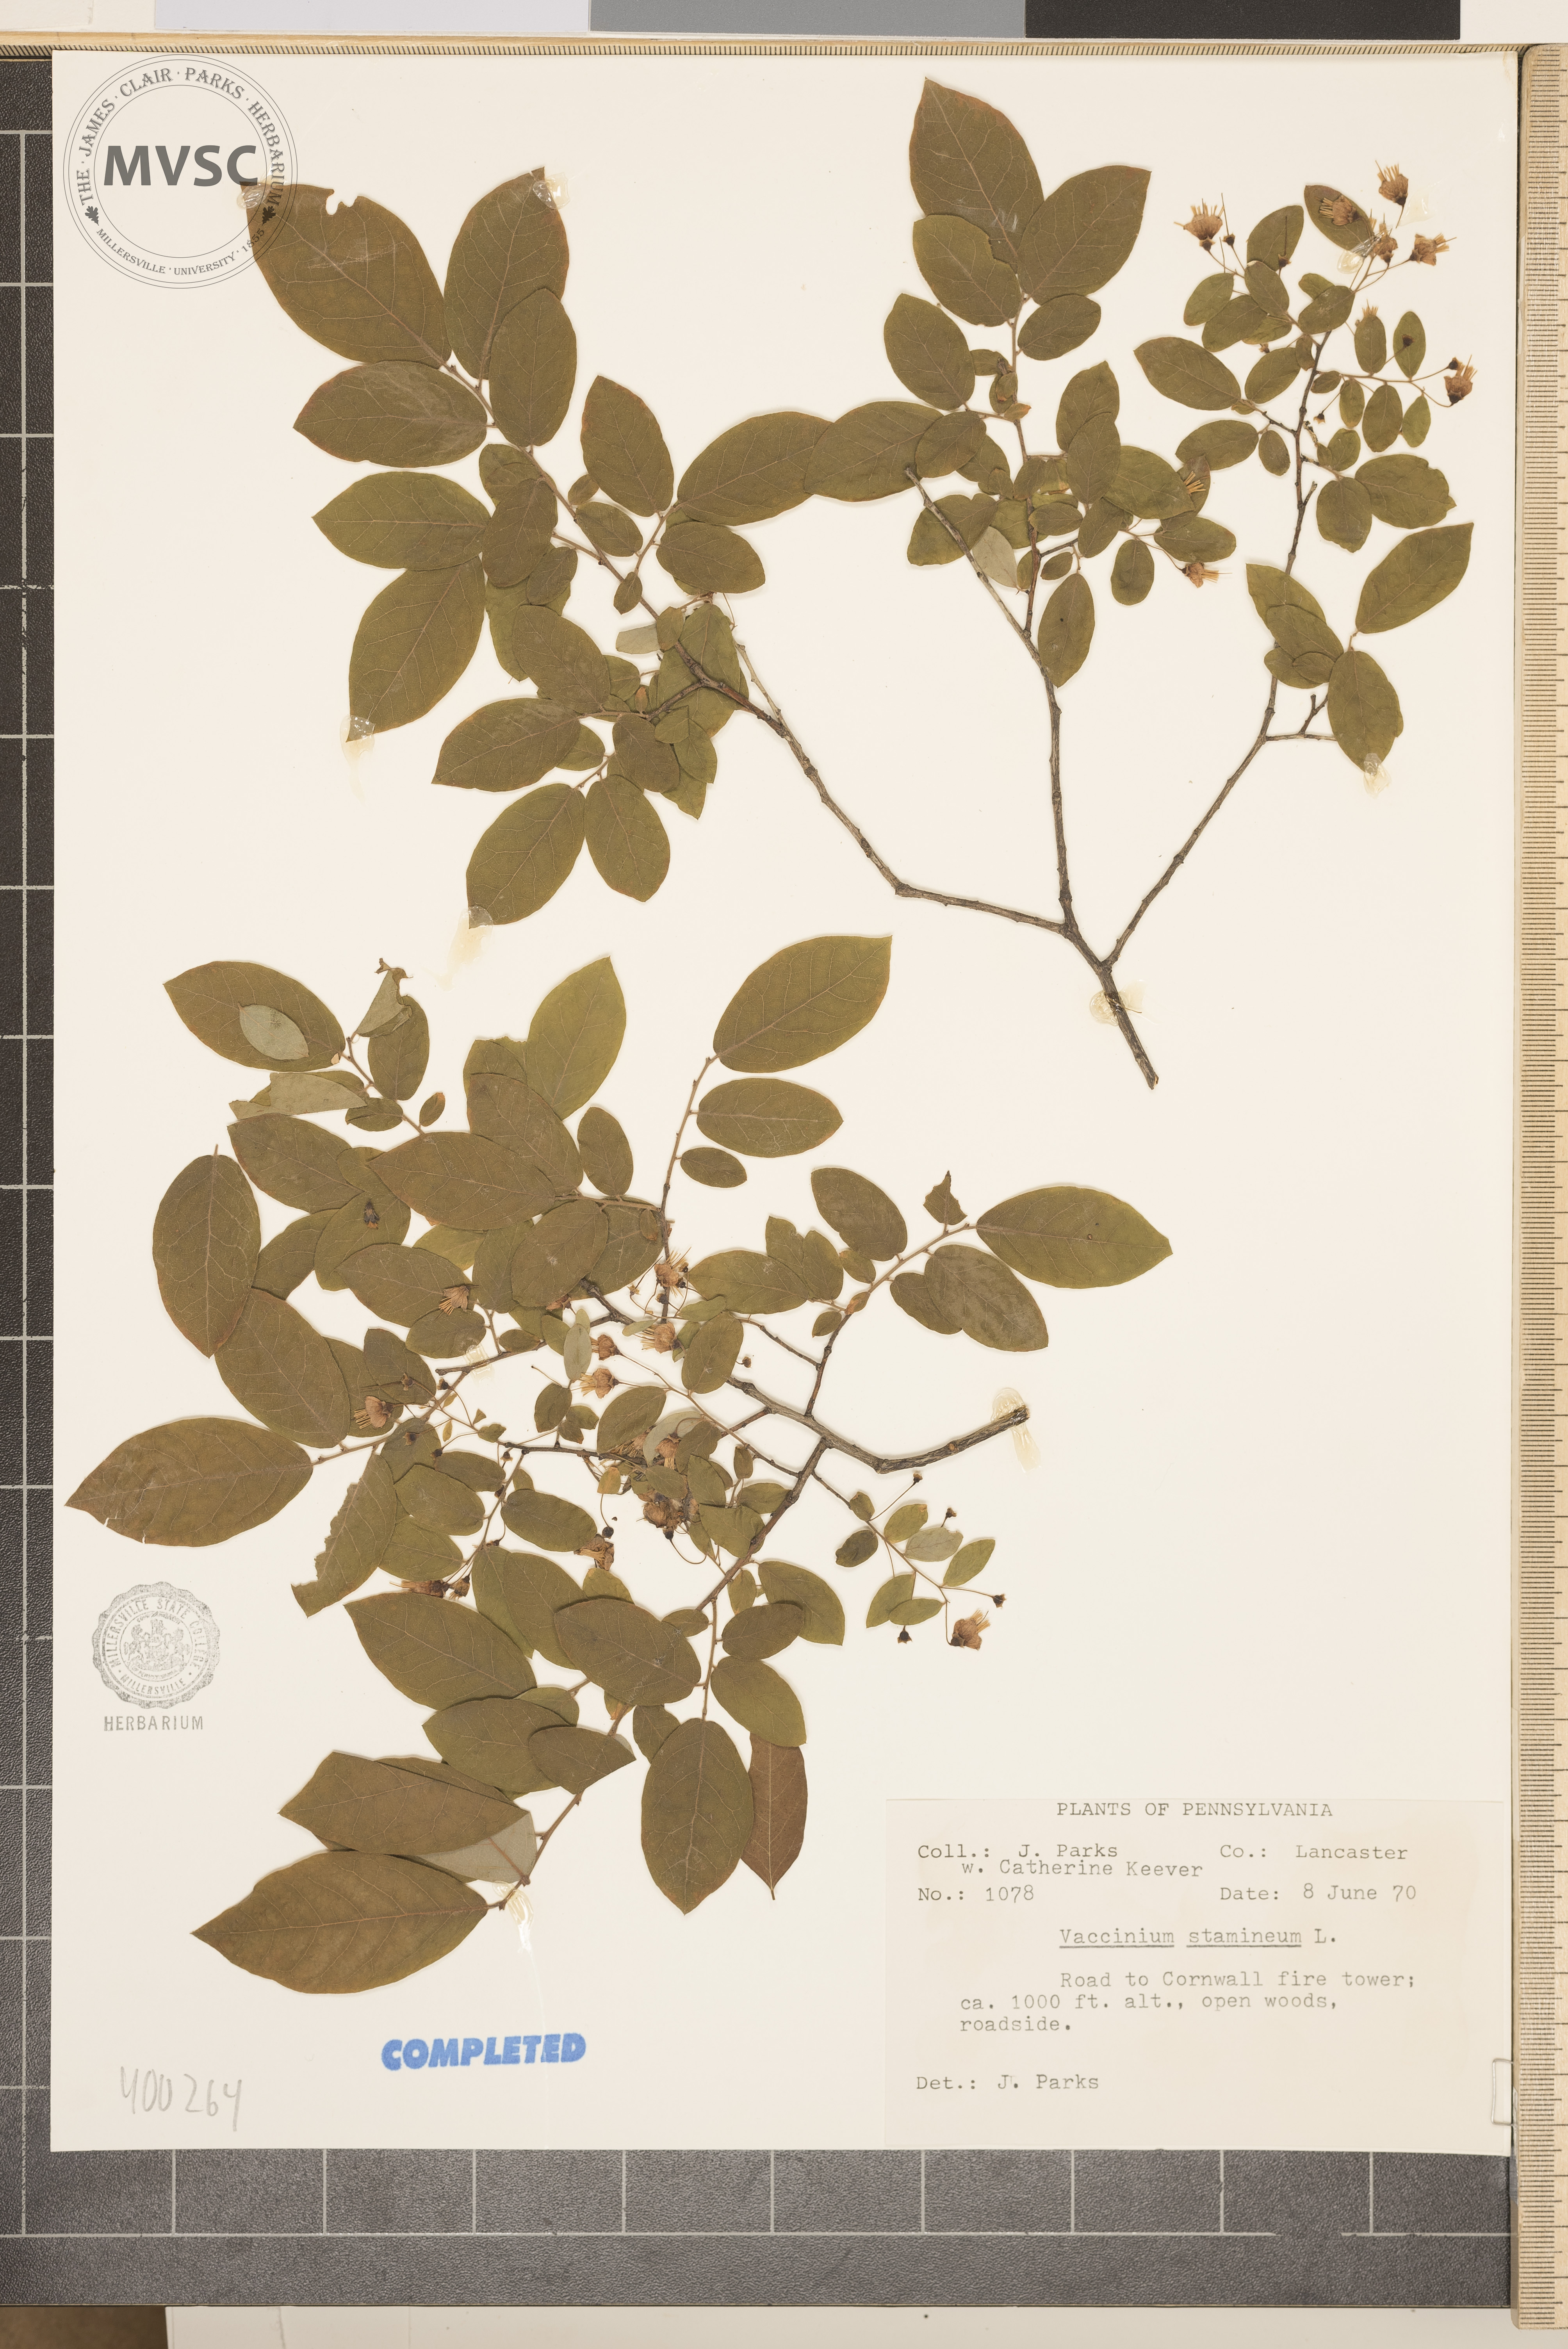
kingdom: Plantae
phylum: Tracheophyta
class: Magnoliopsida
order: Ericales
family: Ericaceae
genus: Vaccinium
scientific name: Vaccinium stamineum
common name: deerberry
